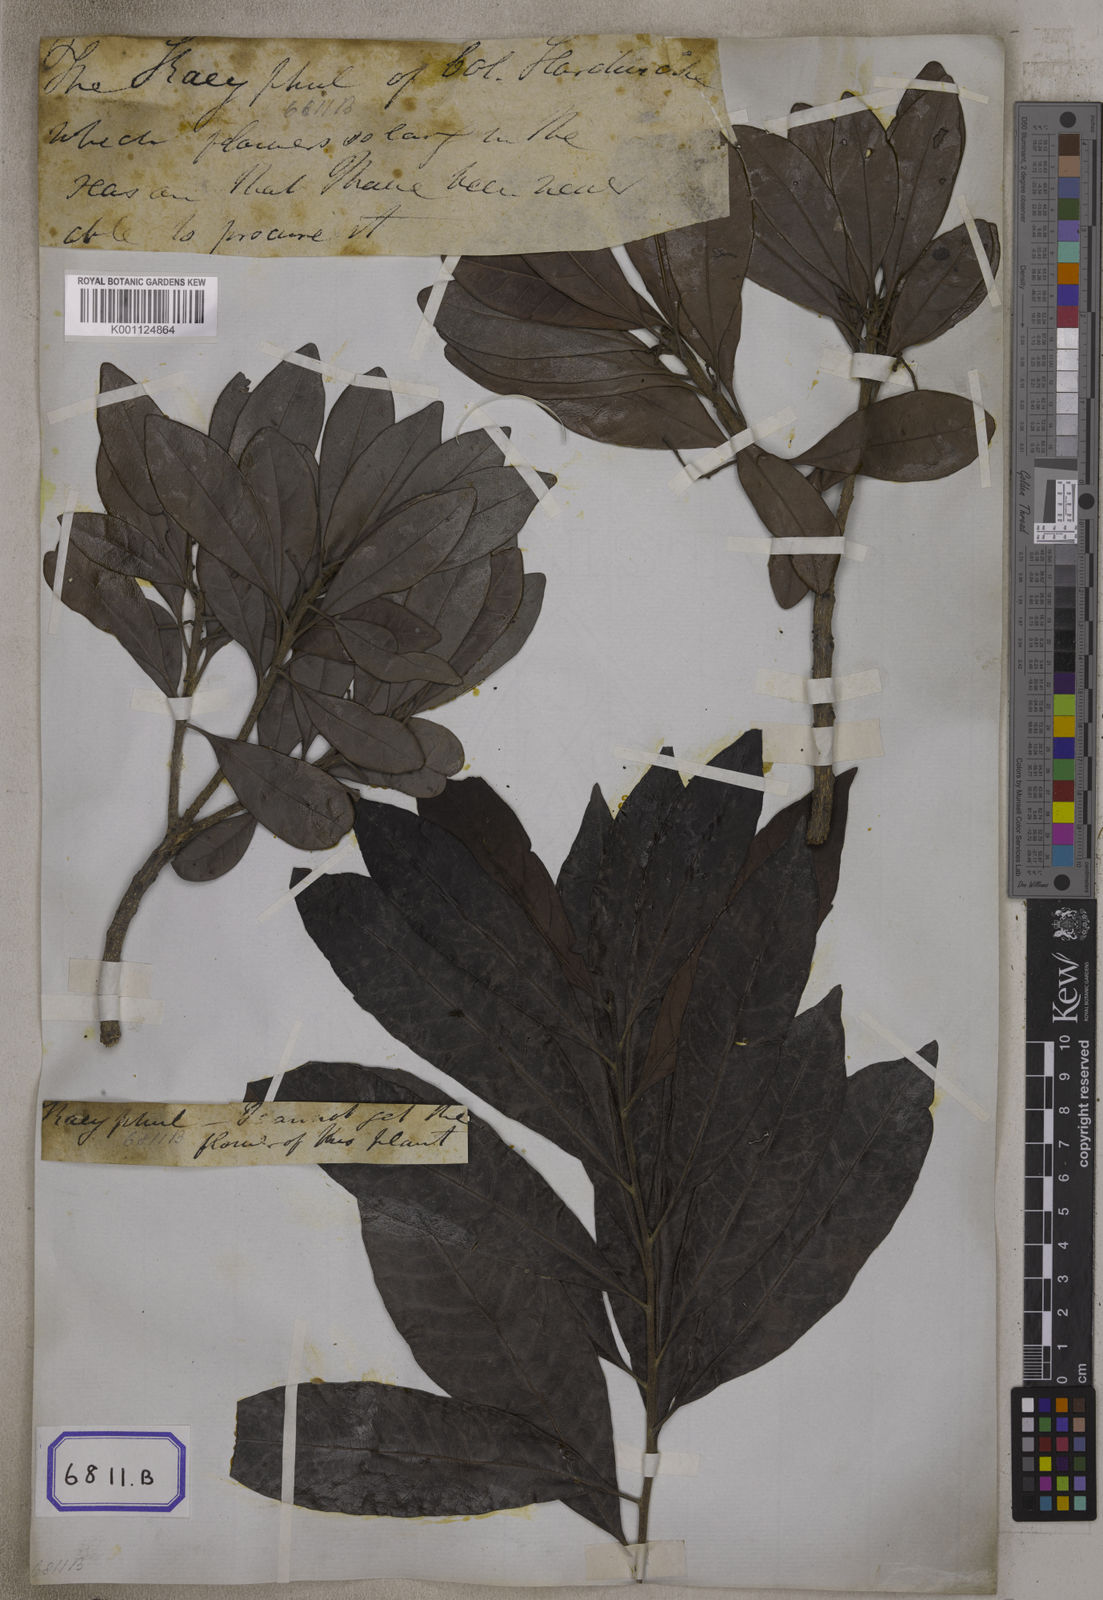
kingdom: Plantae
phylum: Tracheophyta
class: Magnoliopsida
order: Fagales
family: Myricaceae
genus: Morella
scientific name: Morella esculenta
